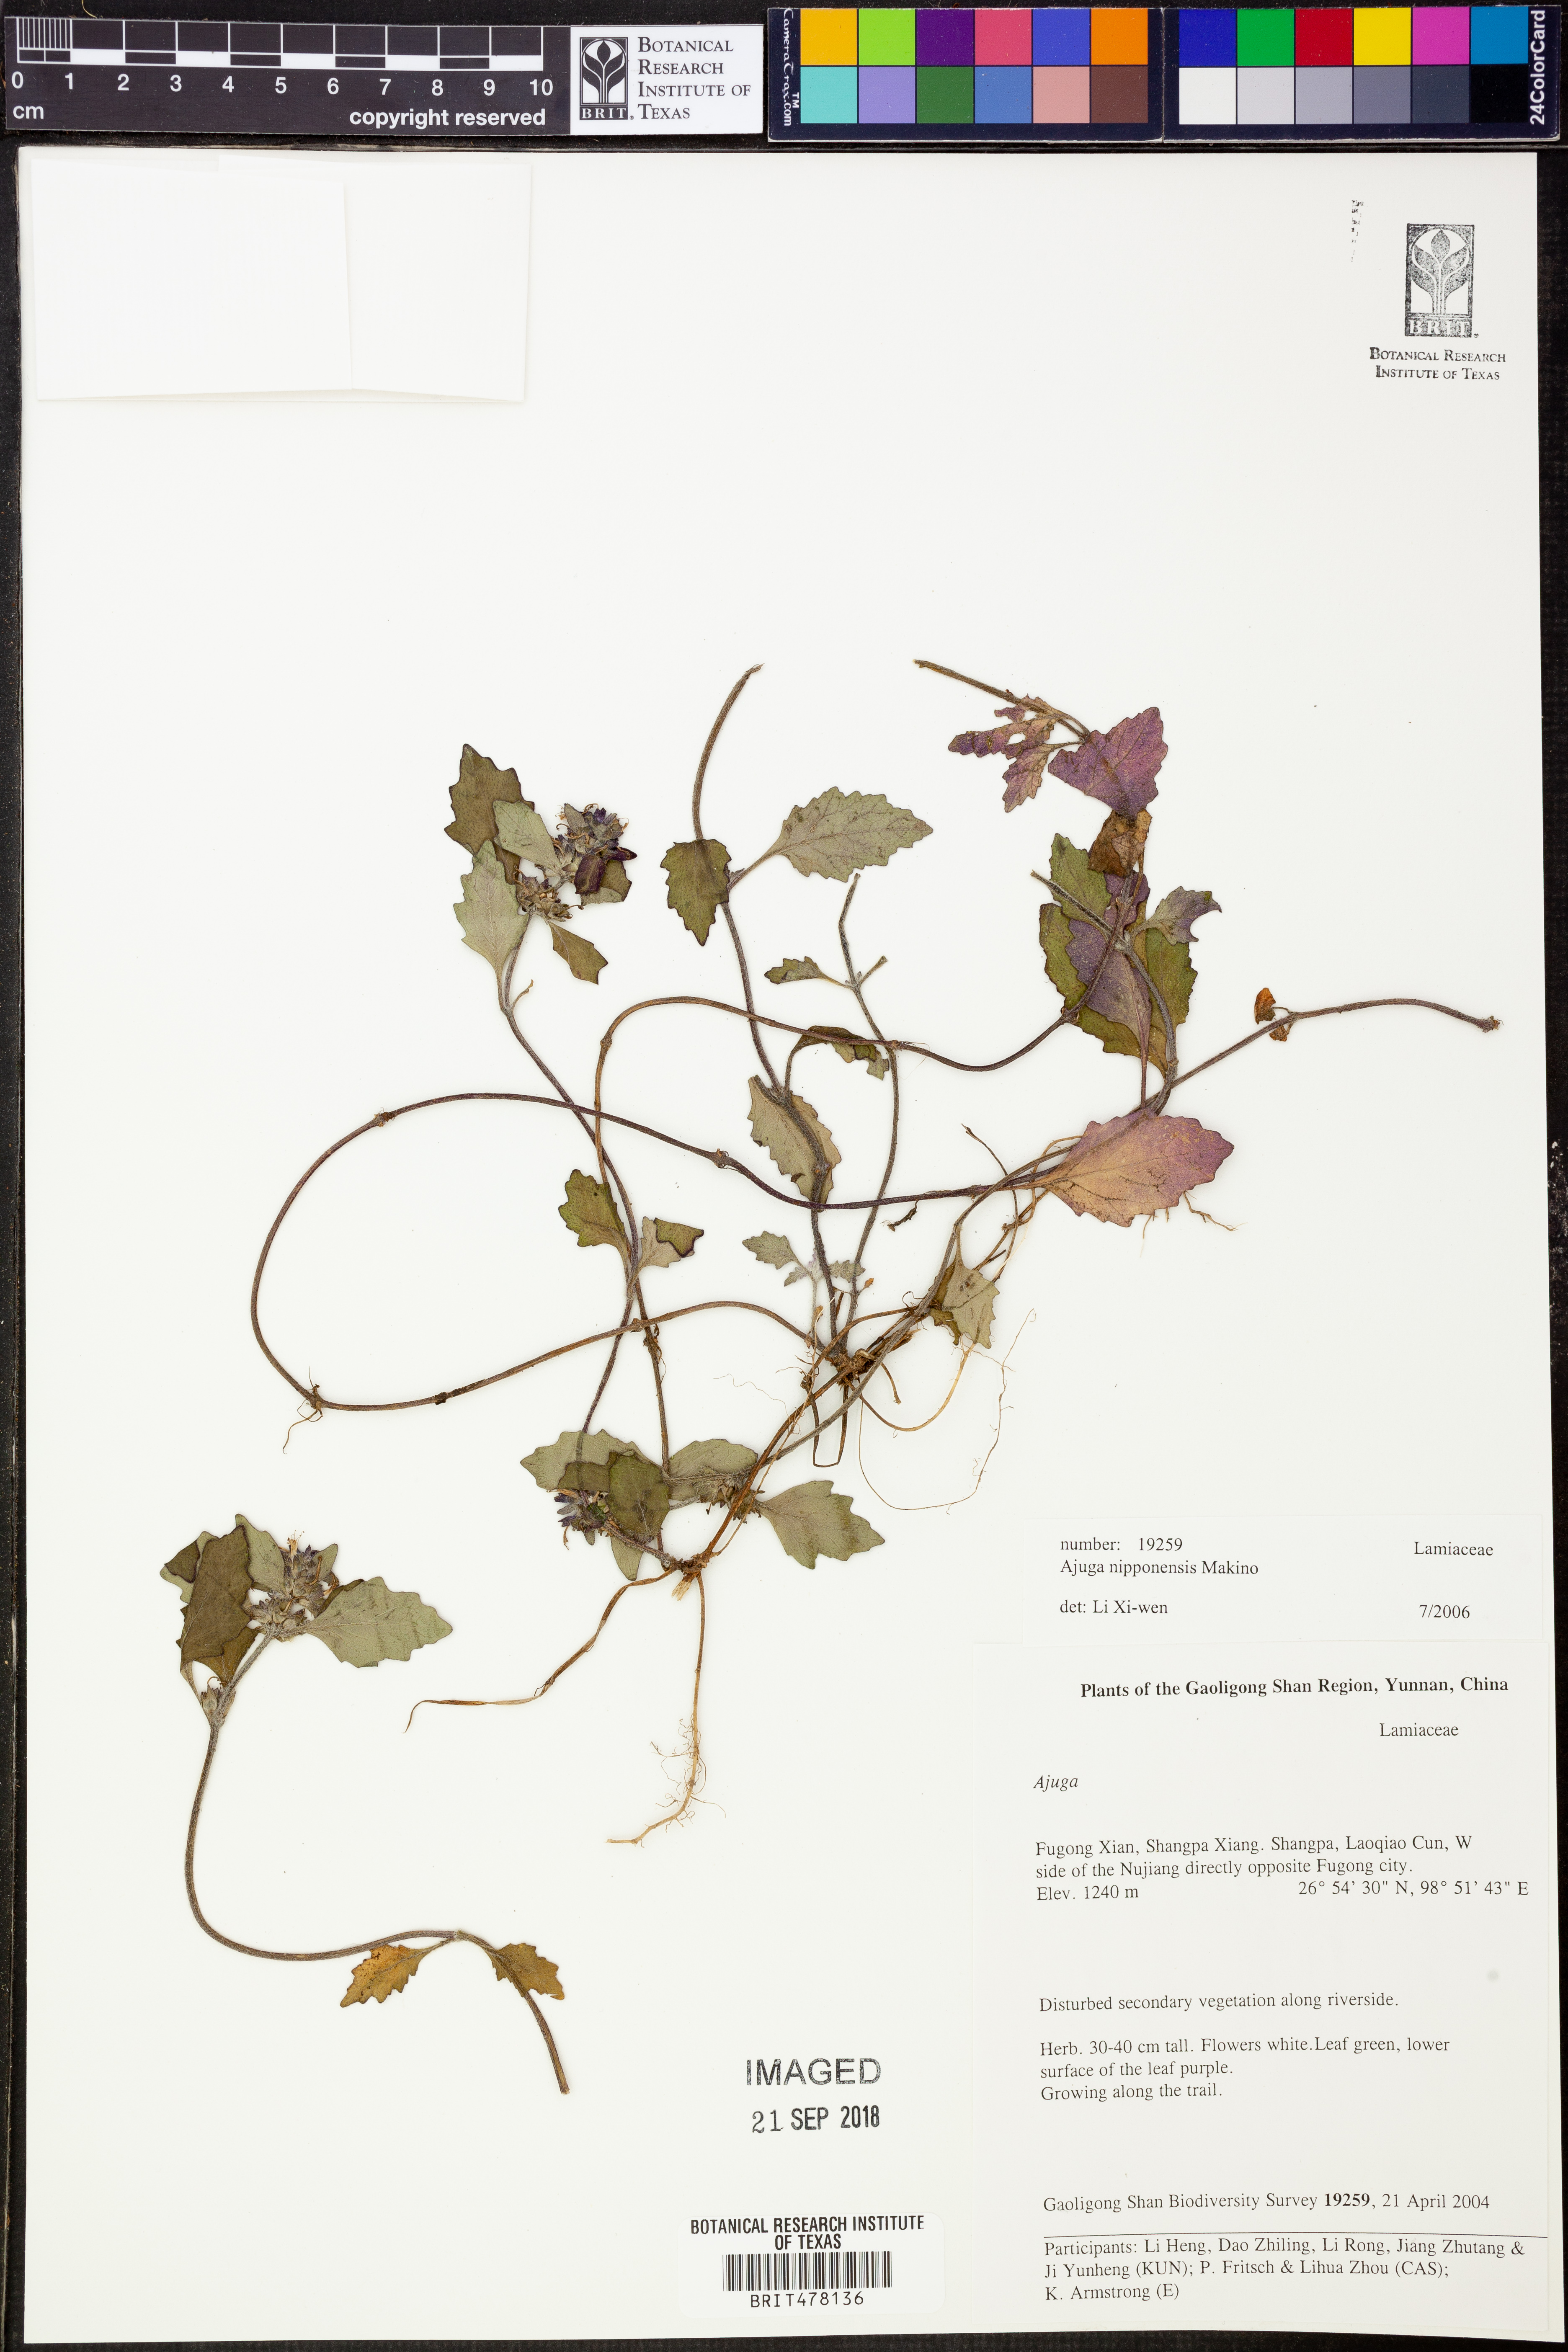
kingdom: Plantae
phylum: Tracheophyta
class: Magnoliopsida
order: Lamiales
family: Lamiaceae
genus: Ajuga
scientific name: Ajuga nipponensis
